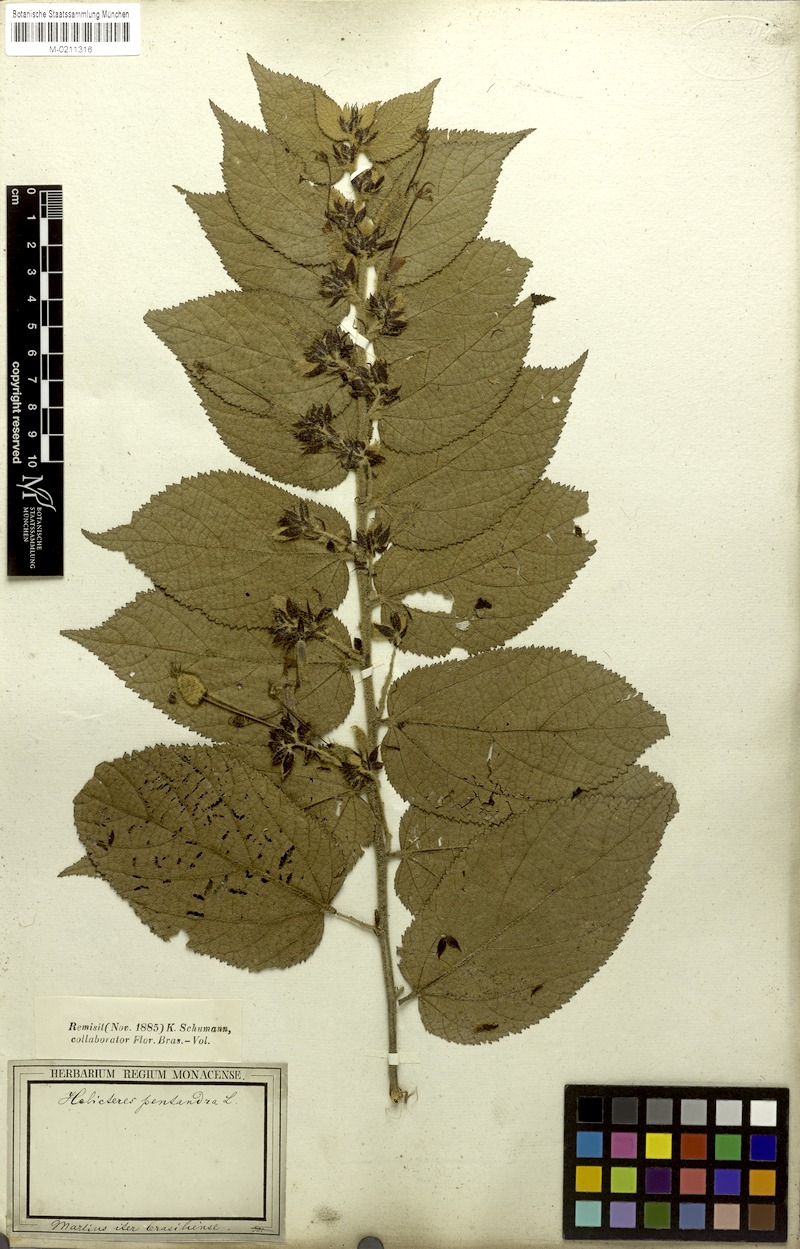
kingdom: Plantae
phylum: Tracheophyta
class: Magnoliopsida
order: Malvales
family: Malvaceae
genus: Helicteres
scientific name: Helicteres pentandra
